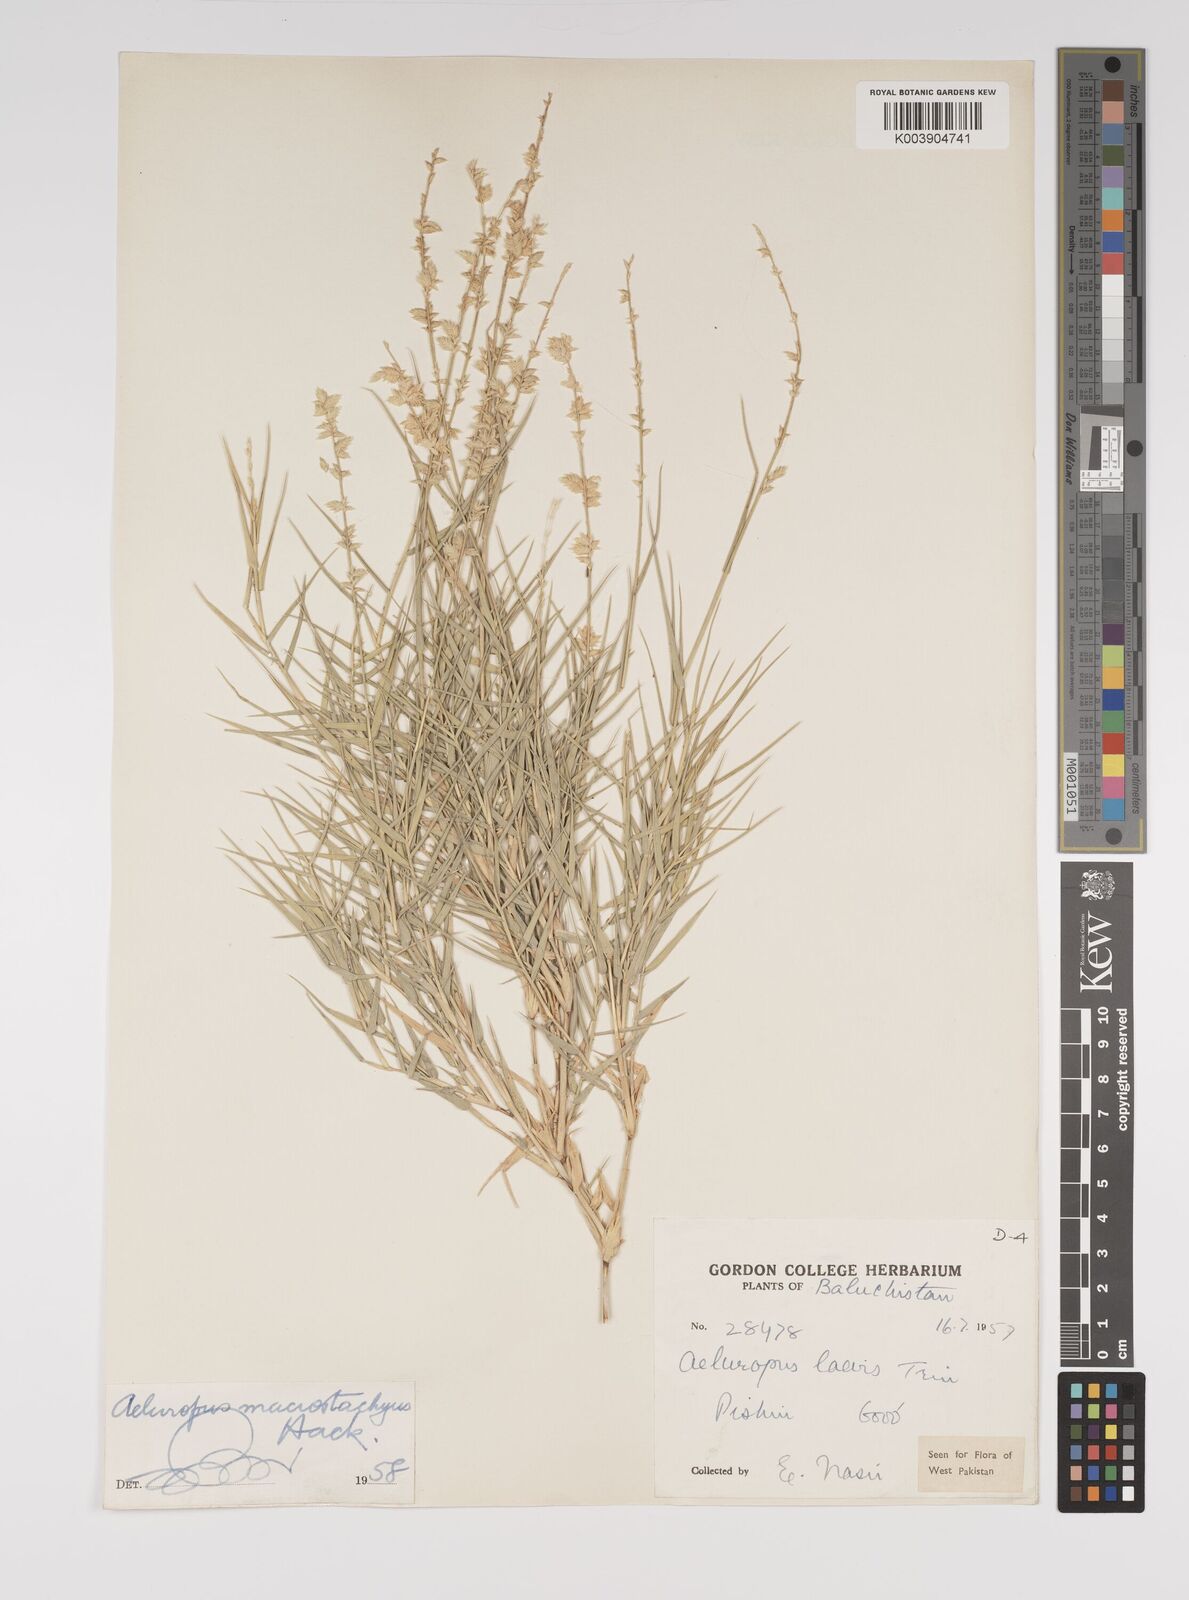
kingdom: Plantae
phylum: Tracheophyta
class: Liliopsida
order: Poales
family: Poaceae
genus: Aeluropus
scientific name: Aeluropus macrostachyus
